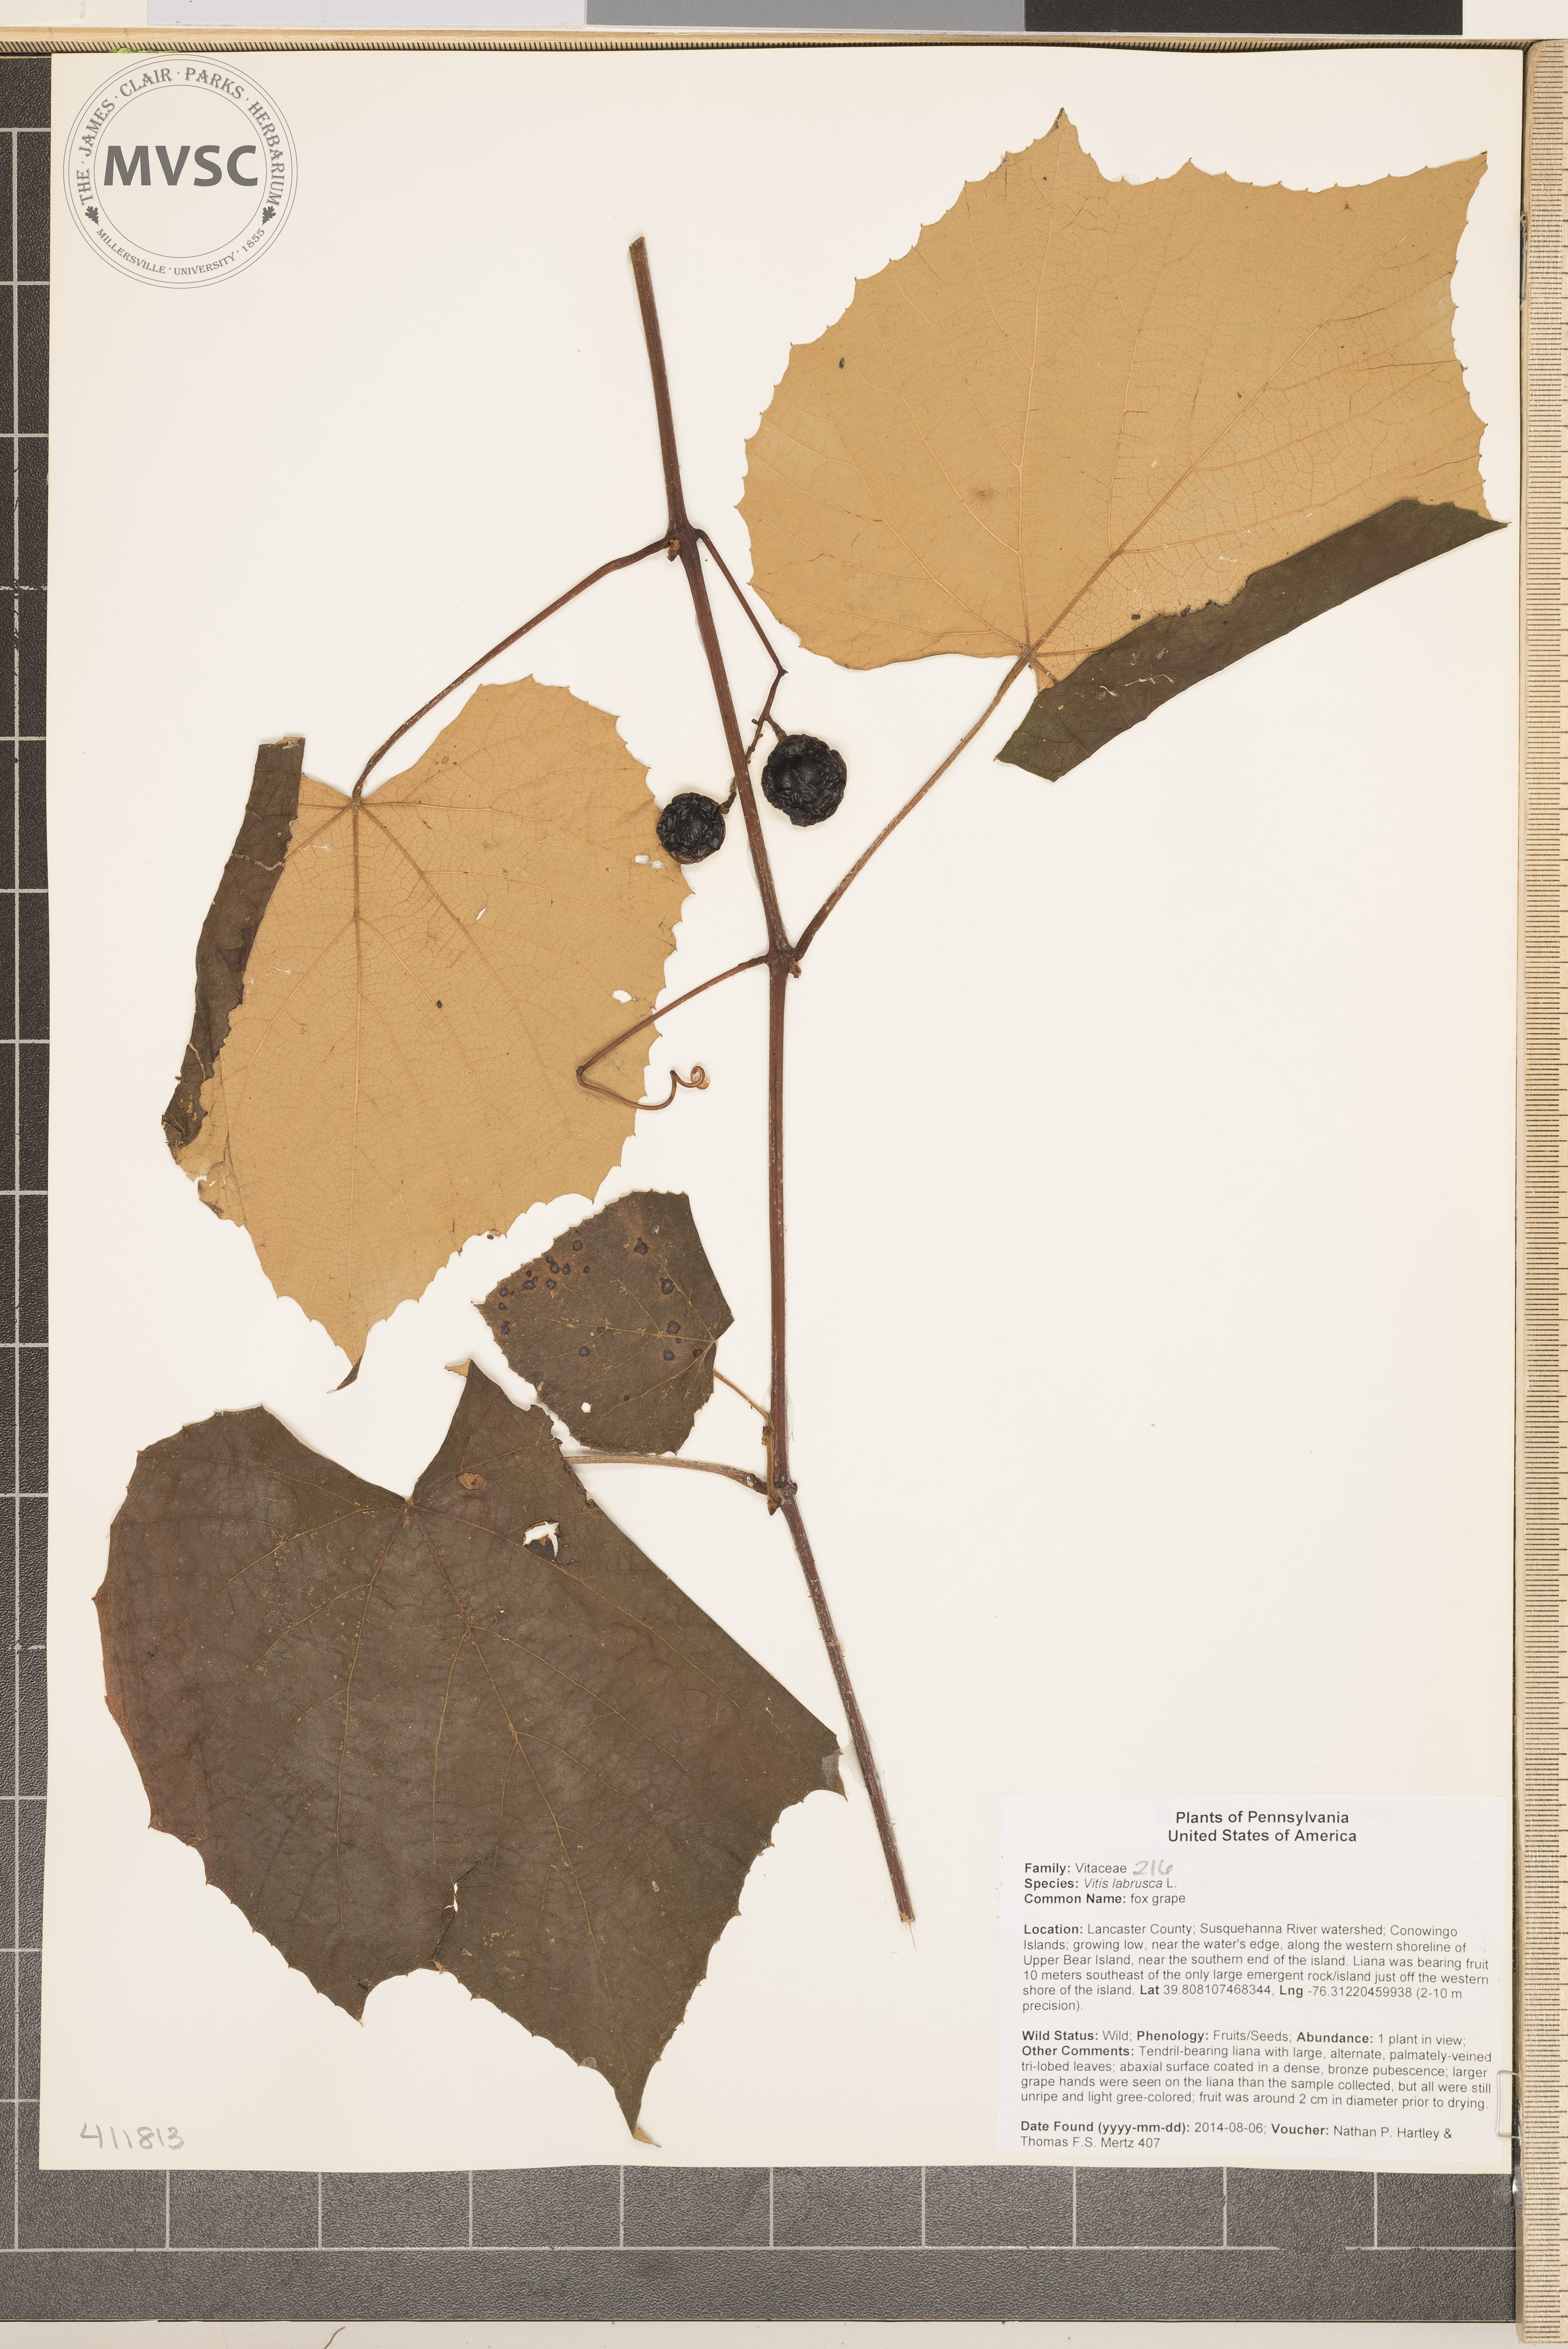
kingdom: Plantae
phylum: Tracheophyta
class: Magnoliopsida
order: Vitales
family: Vitaceae
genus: Vitis
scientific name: Vitis labrusca
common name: fox grape
